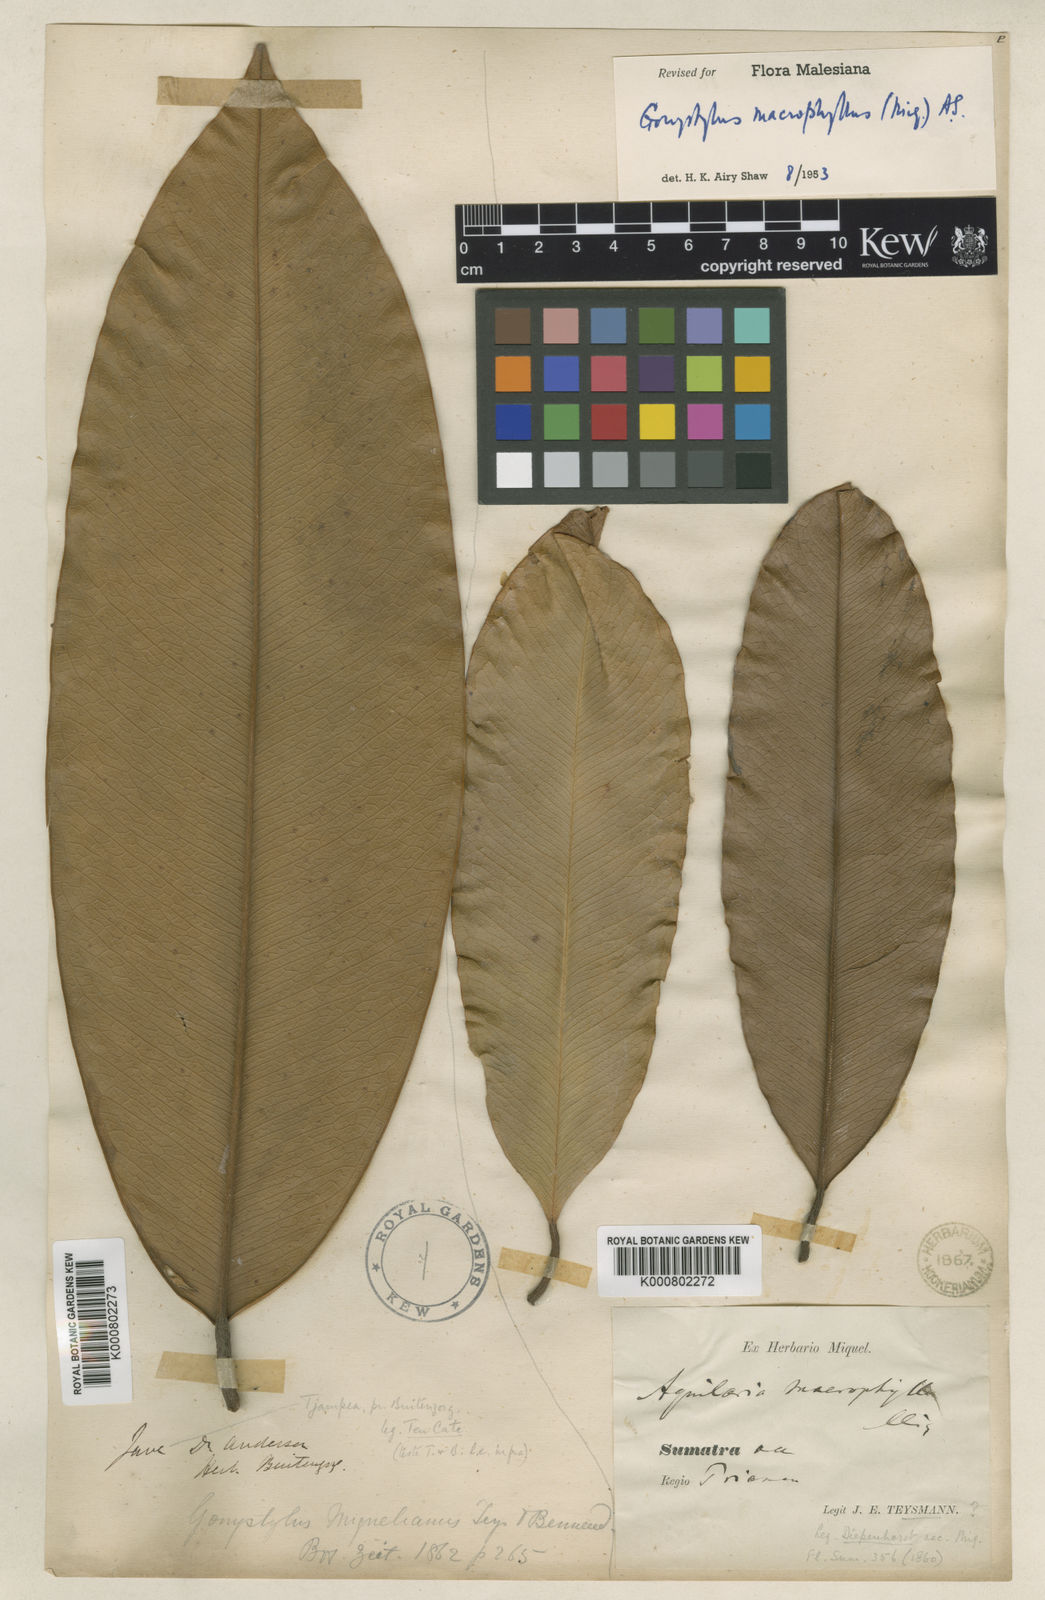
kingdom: Plantae
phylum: Tracheophyta
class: Magnoliopsida
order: Malvales
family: Thymelaeaceae
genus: Gonystylus
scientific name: Gonystylus macrophyllus
